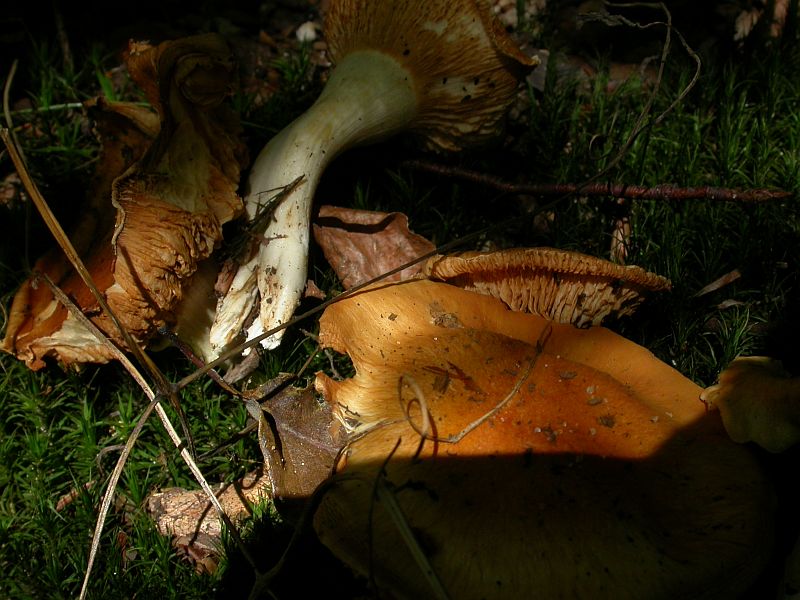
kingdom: Fungi
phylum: Basidiomycota
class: Agaricomycetes
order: Agaricales
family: Cortinariaceae
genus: Thaxterogaster
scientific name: Thaxterogaster emollitus
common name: besk slørhat
